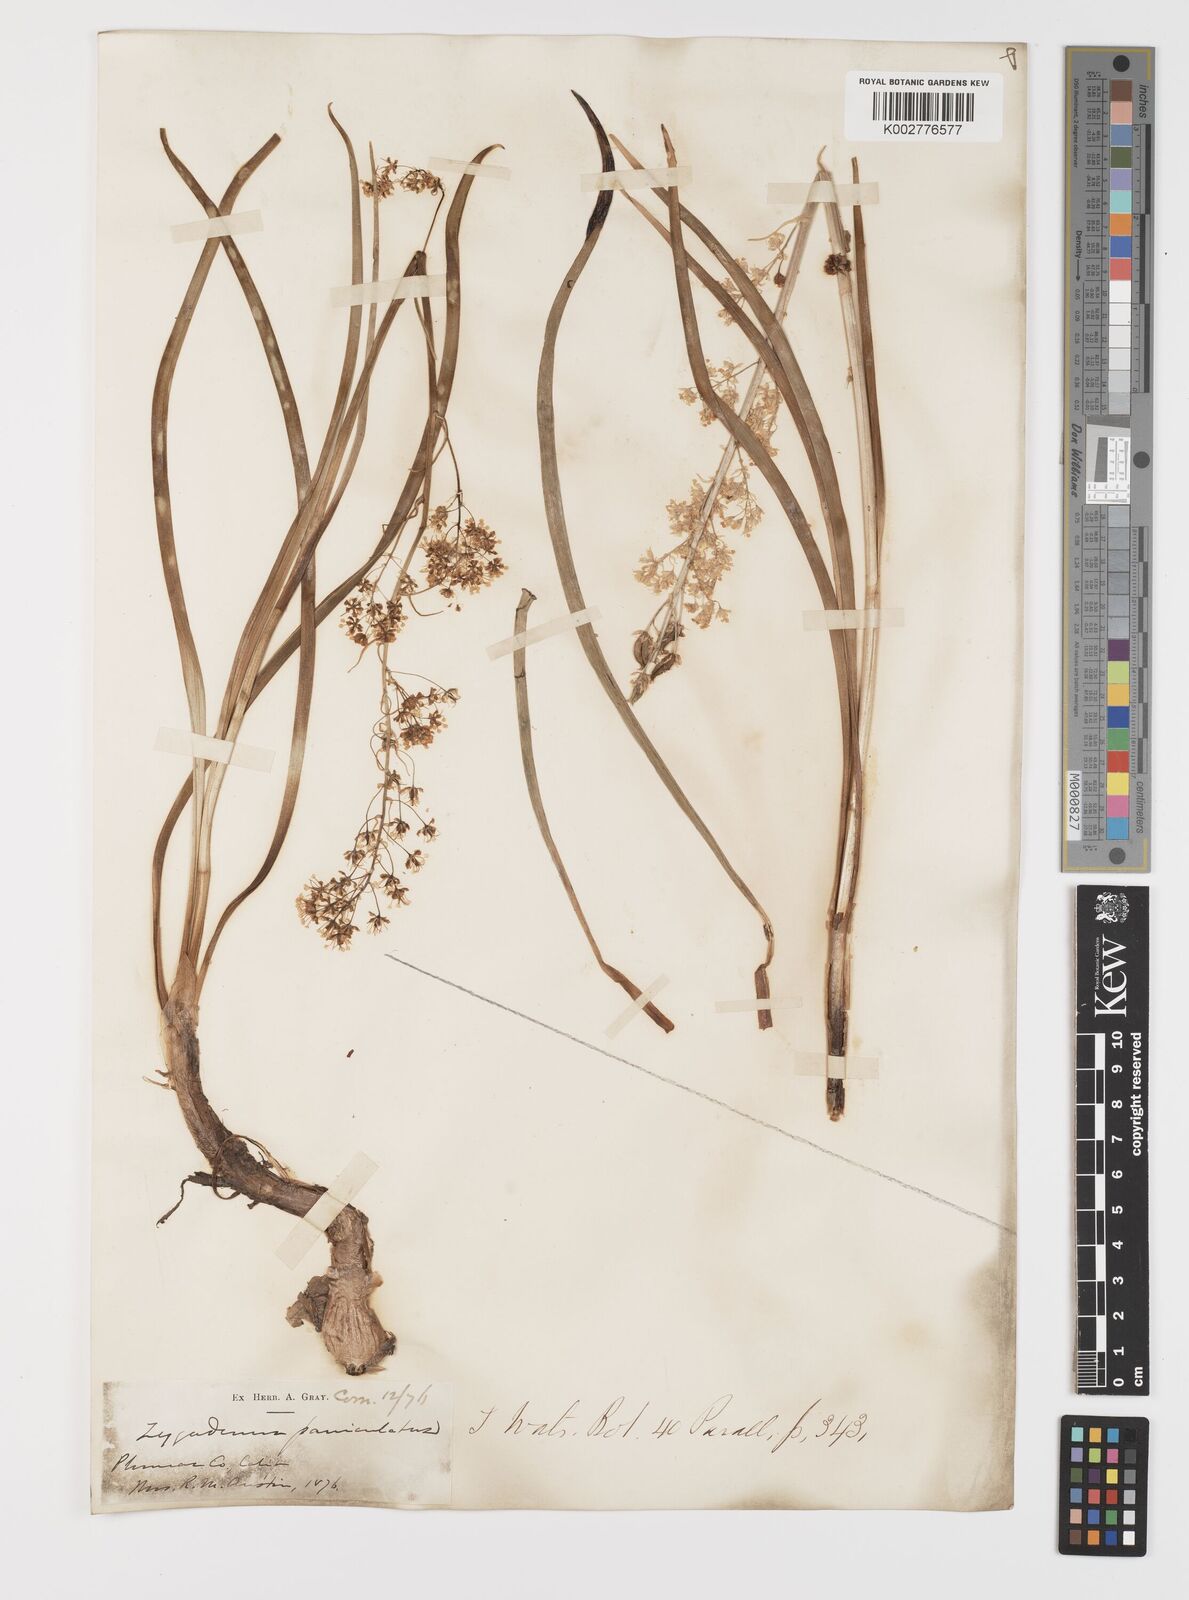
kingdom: Plantae
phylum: Tracheophyta
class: Liliopsida
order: Liliales
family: Melanthiaceae
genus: Toxicoscordion
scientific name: Toxicoscordion paniculatum
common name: Foothill death camas
